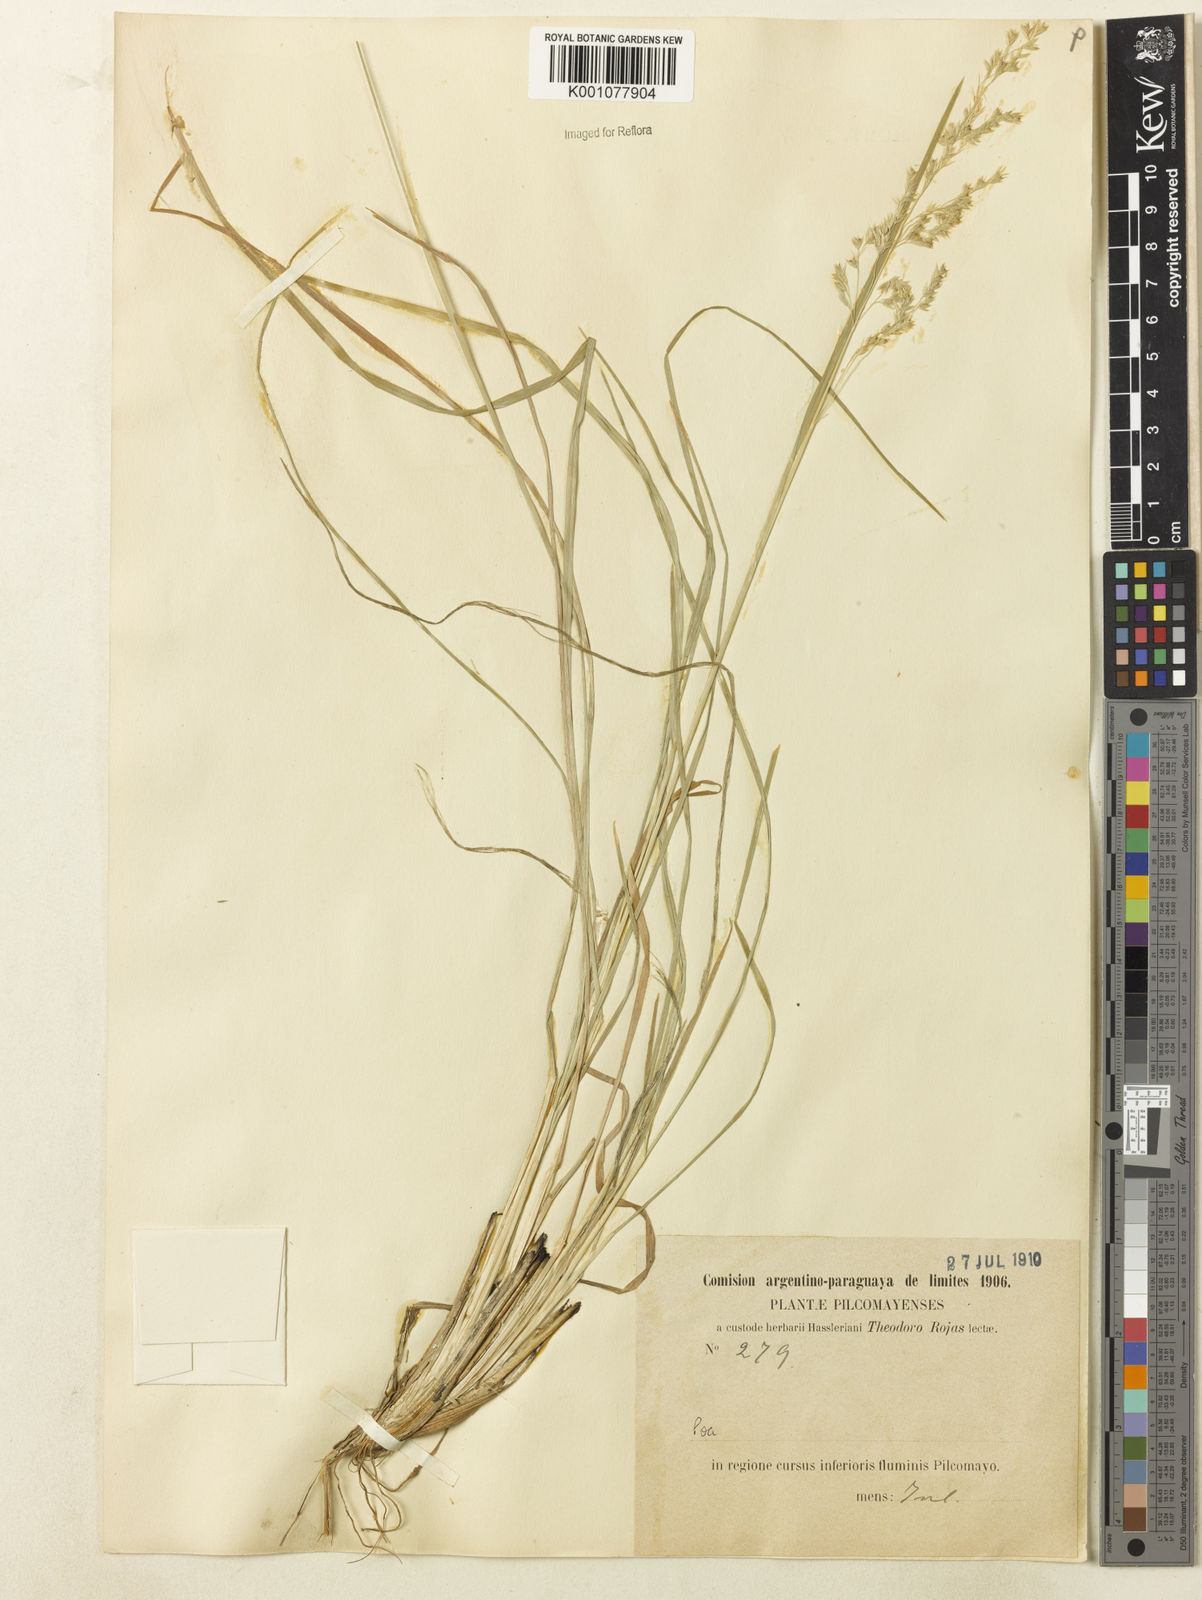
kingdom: Plantae
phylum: Tracheophyta
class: Liliopsida
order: Poales
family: Poaceae
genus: Poa
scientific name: Poa pilcomayensis
